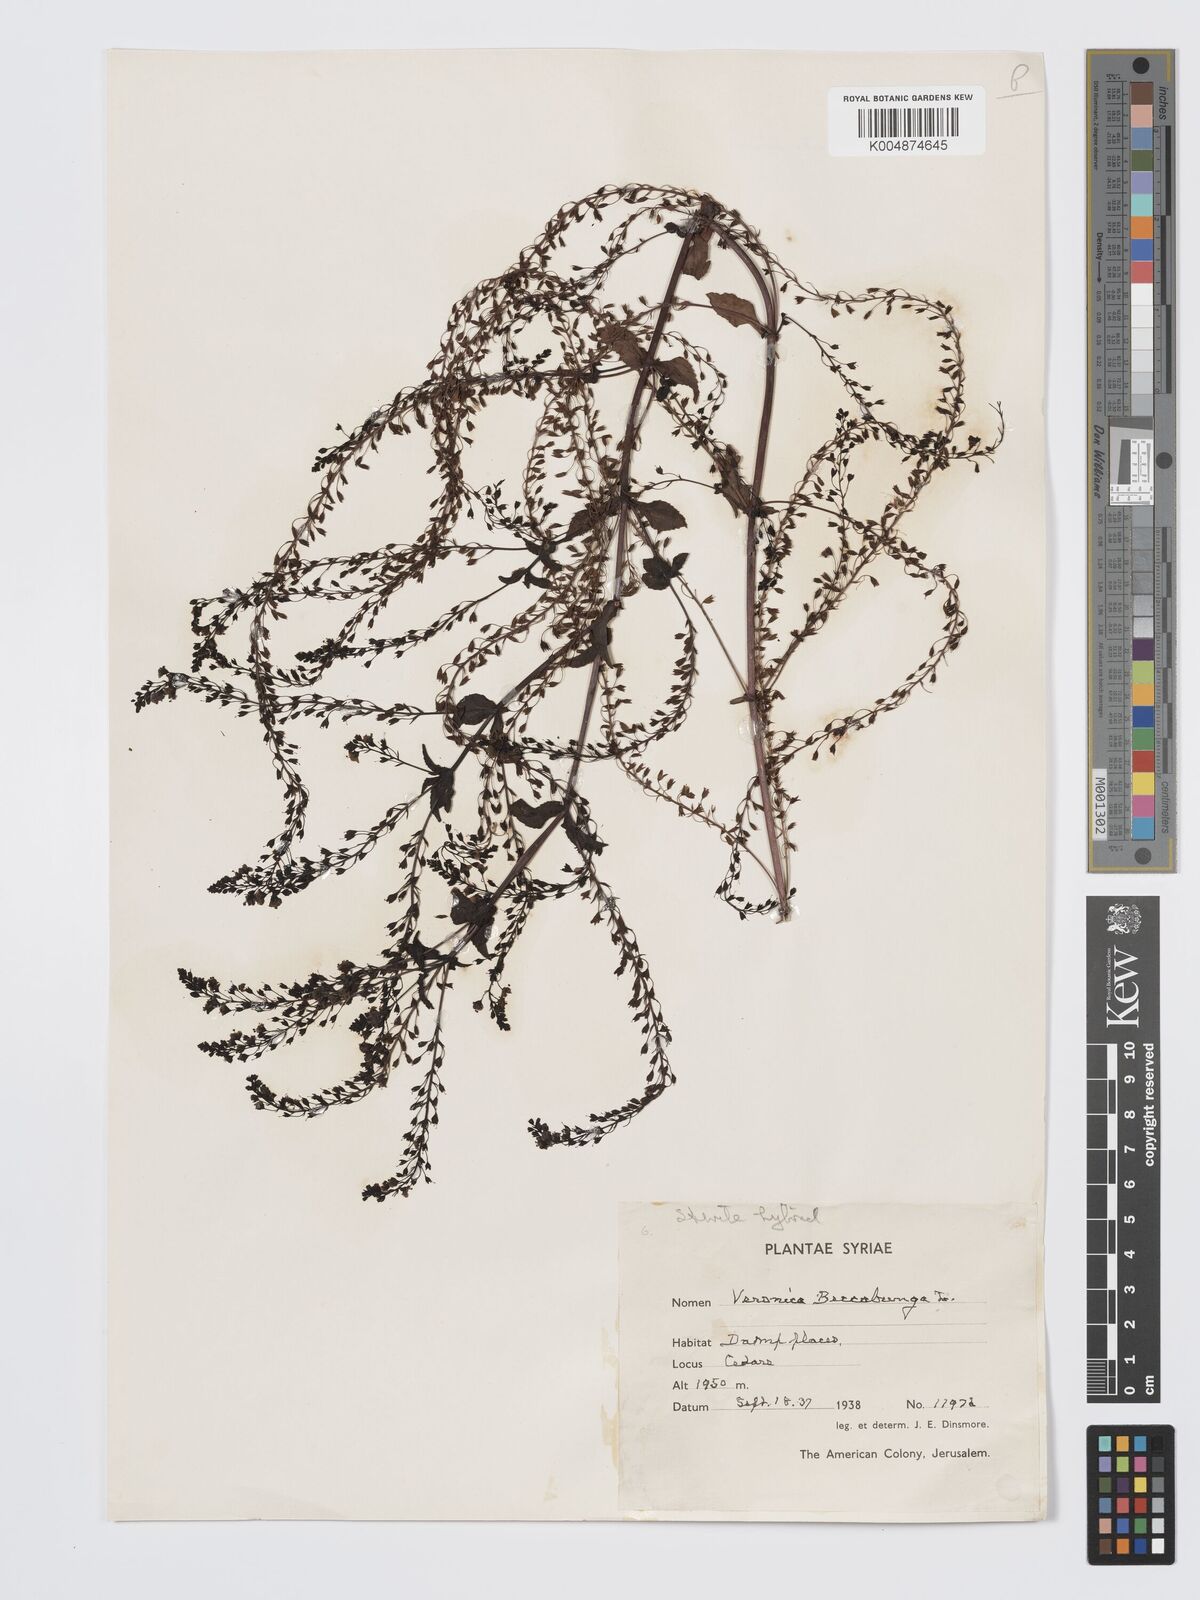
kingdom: Plantae
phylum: Tracheophyta
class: Magnoliopsida
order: Lamiales
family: Plantaginaceae
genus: Veronica
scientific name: Veronica
